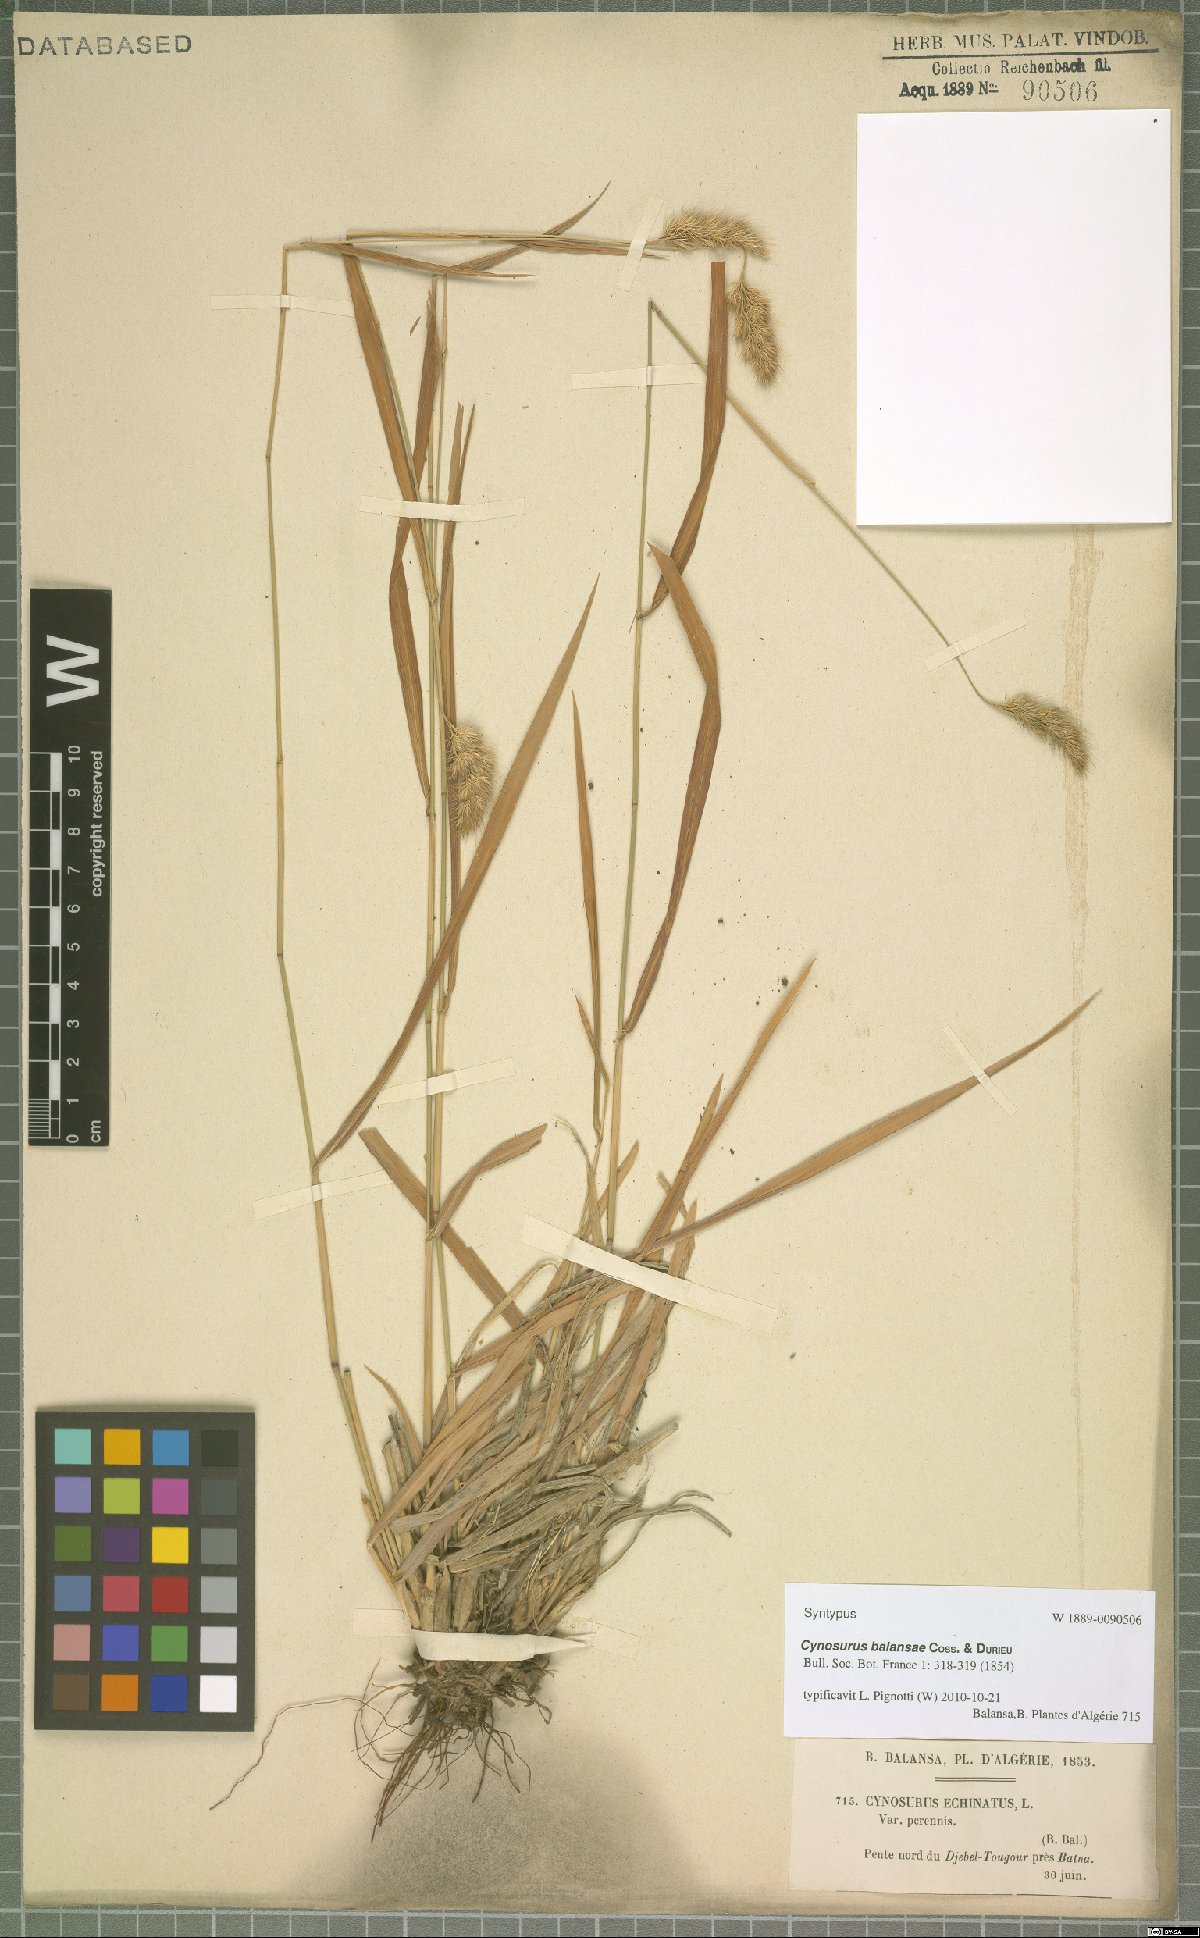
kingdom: Plantae
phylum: Tracheophyta
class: Liliopsida
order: Poales
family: Poaceae
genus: Cynosurus
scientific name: Cynosurus balansae
